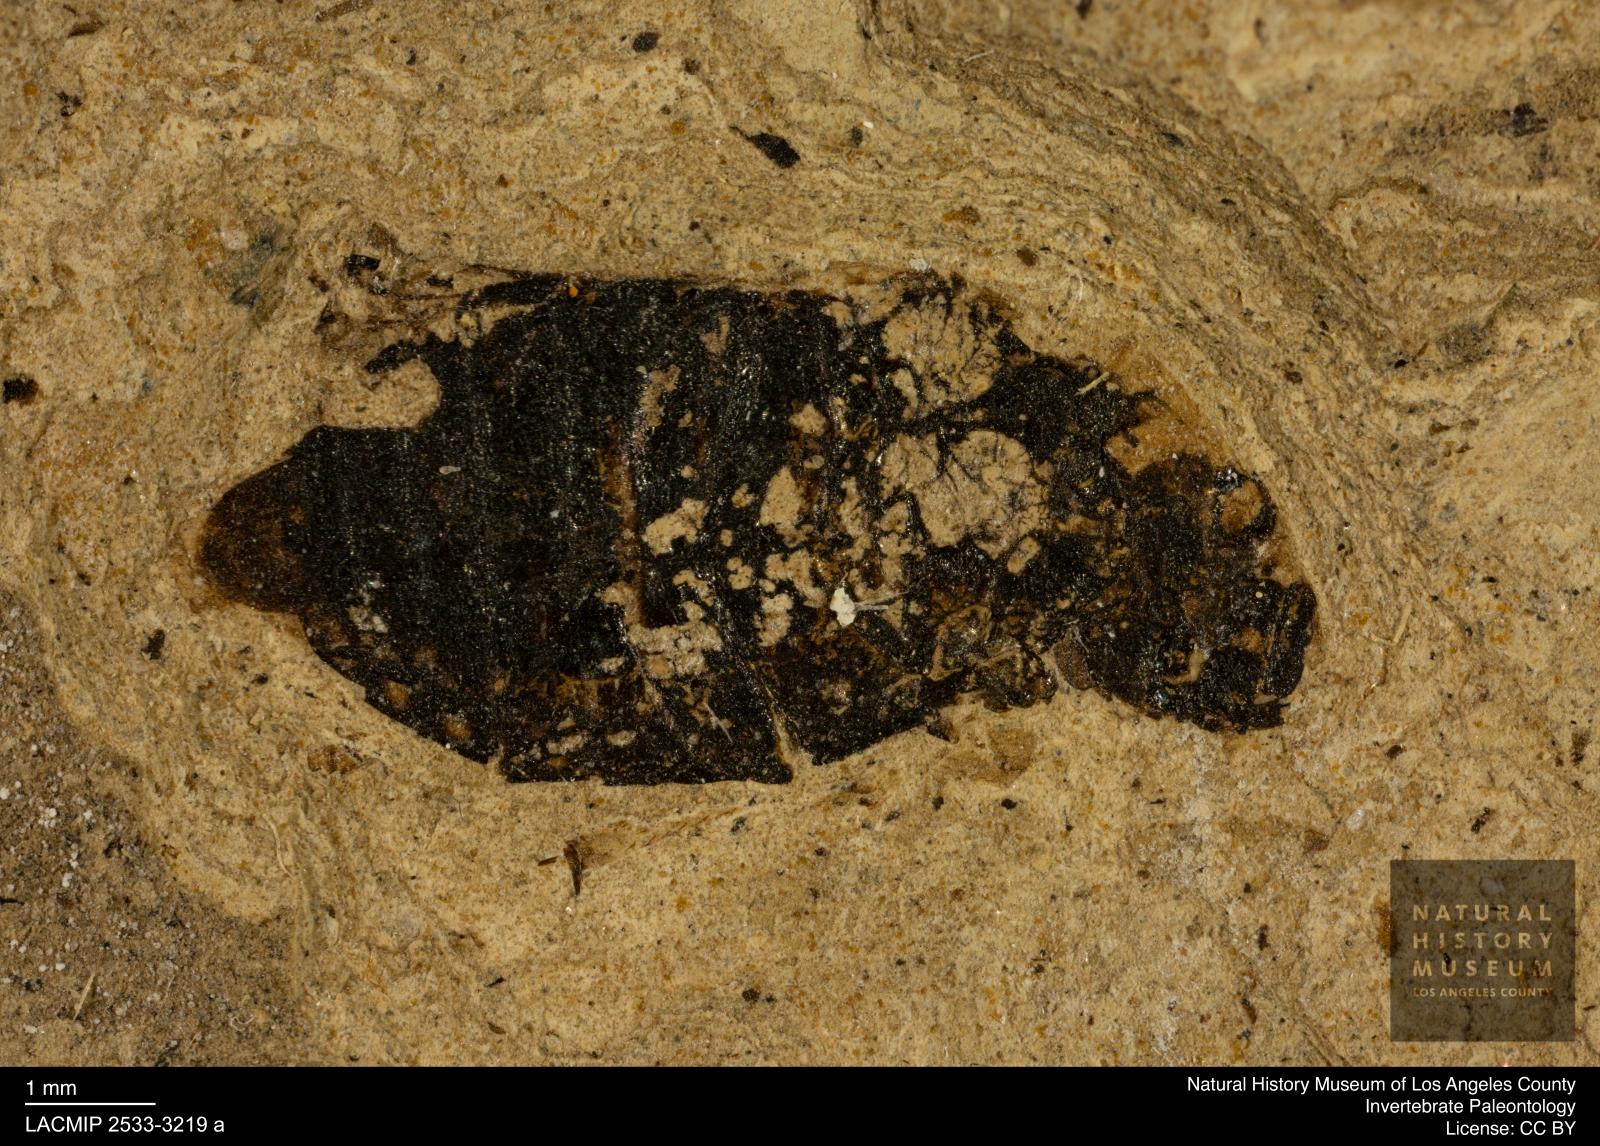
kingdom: Animalia
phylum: Arthropoda
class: Insecta
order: Coleoptera
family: Hydrophilidae
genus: Berosus
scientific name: Berosus morticinus
